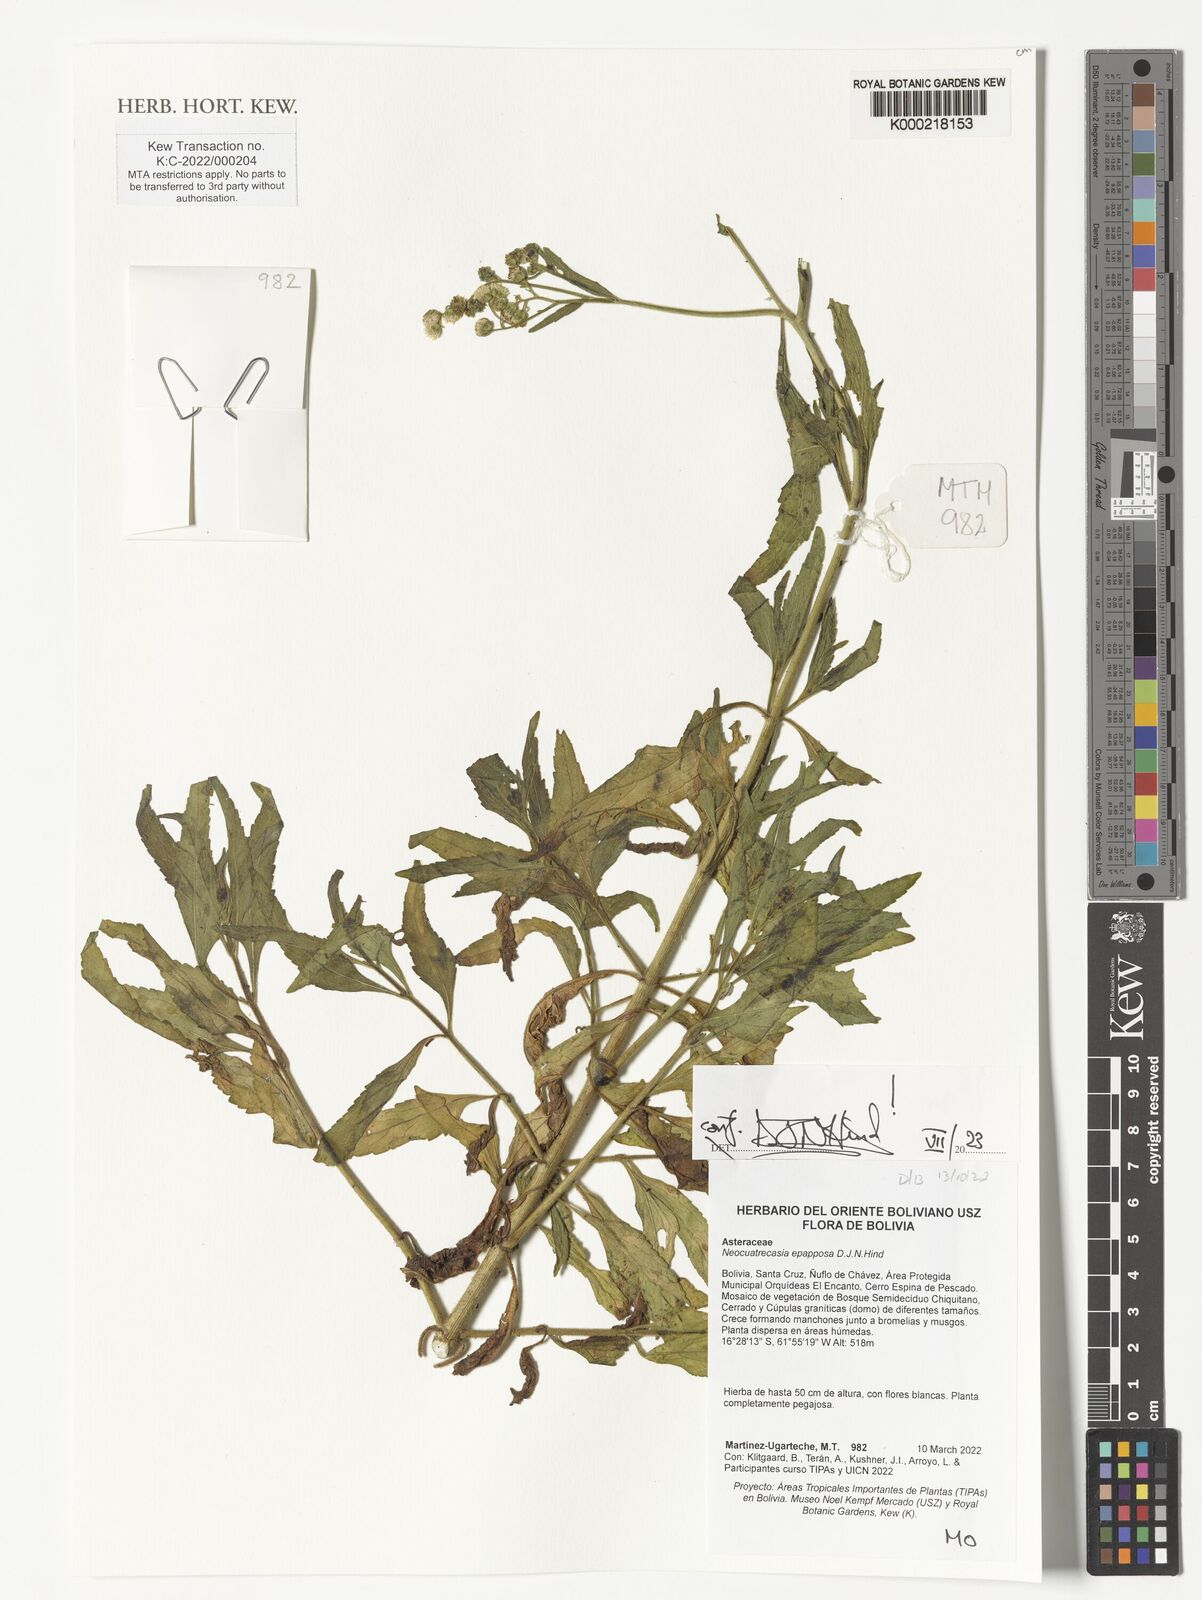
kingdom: Plantae
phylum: Tracheophyta
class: Magnoliopsida
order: Asterales
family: Asteraceae
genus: Neocuatrecasia
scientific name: Neocuatrecasia epapposa
